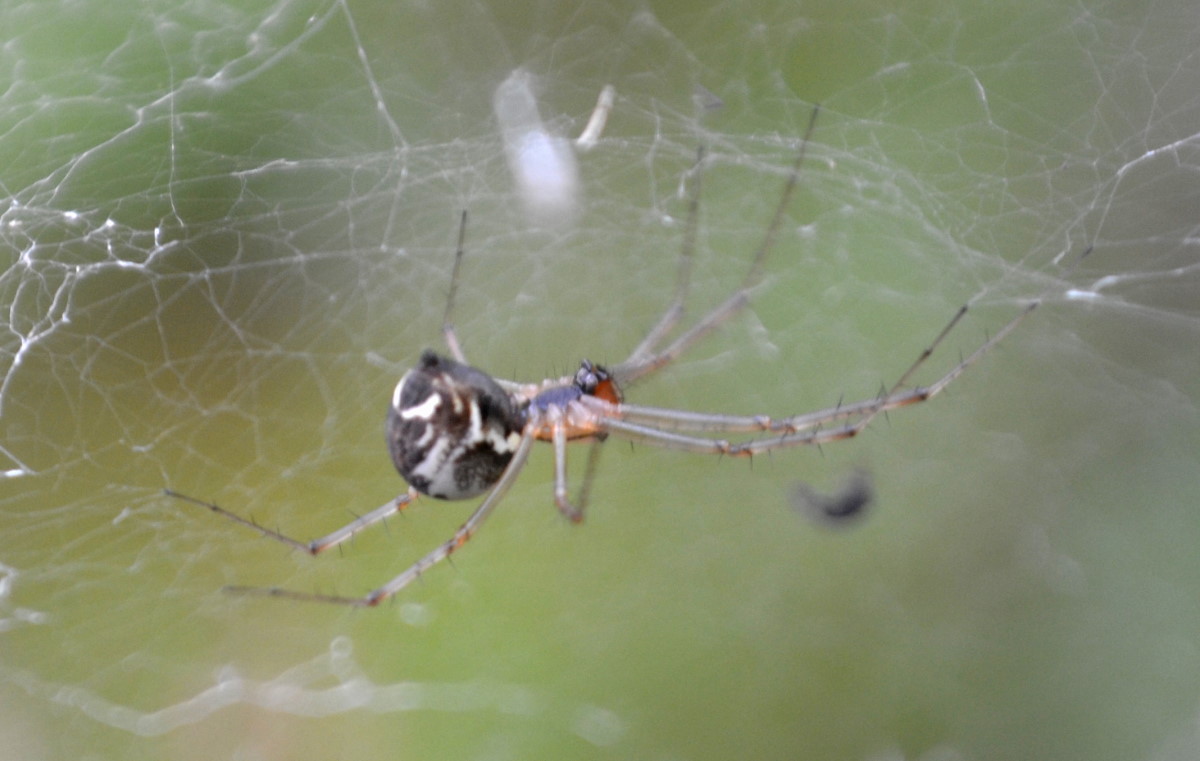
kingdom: Animalia
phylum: Arthropoda
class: Arachnida
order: Araneae
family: Linyphiidae
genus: Linyphia
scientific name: Linyphia triangularis
